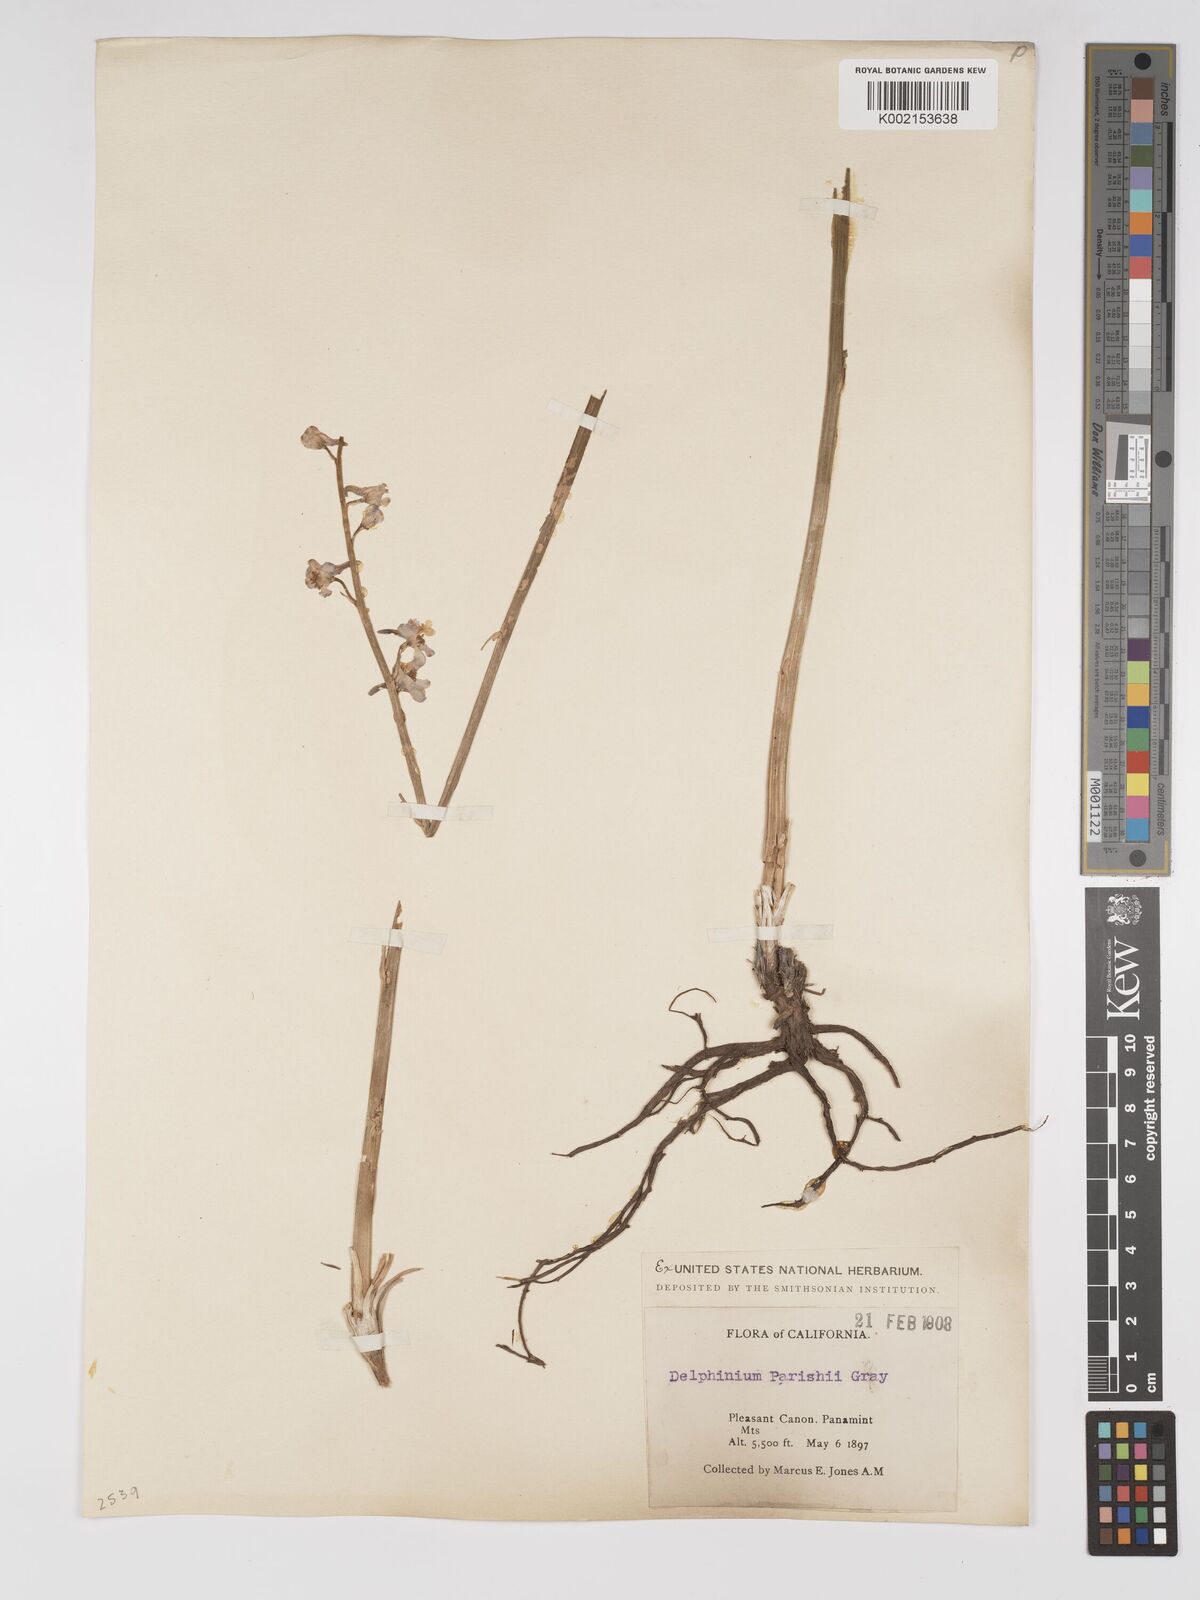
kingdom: Plantae
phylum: Tracheophyta
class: Magnoliopsida
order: Ranunculales
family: Ranunculaceae
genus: Delphinium
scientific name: Delphinium parishii
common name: Apache larkspur
